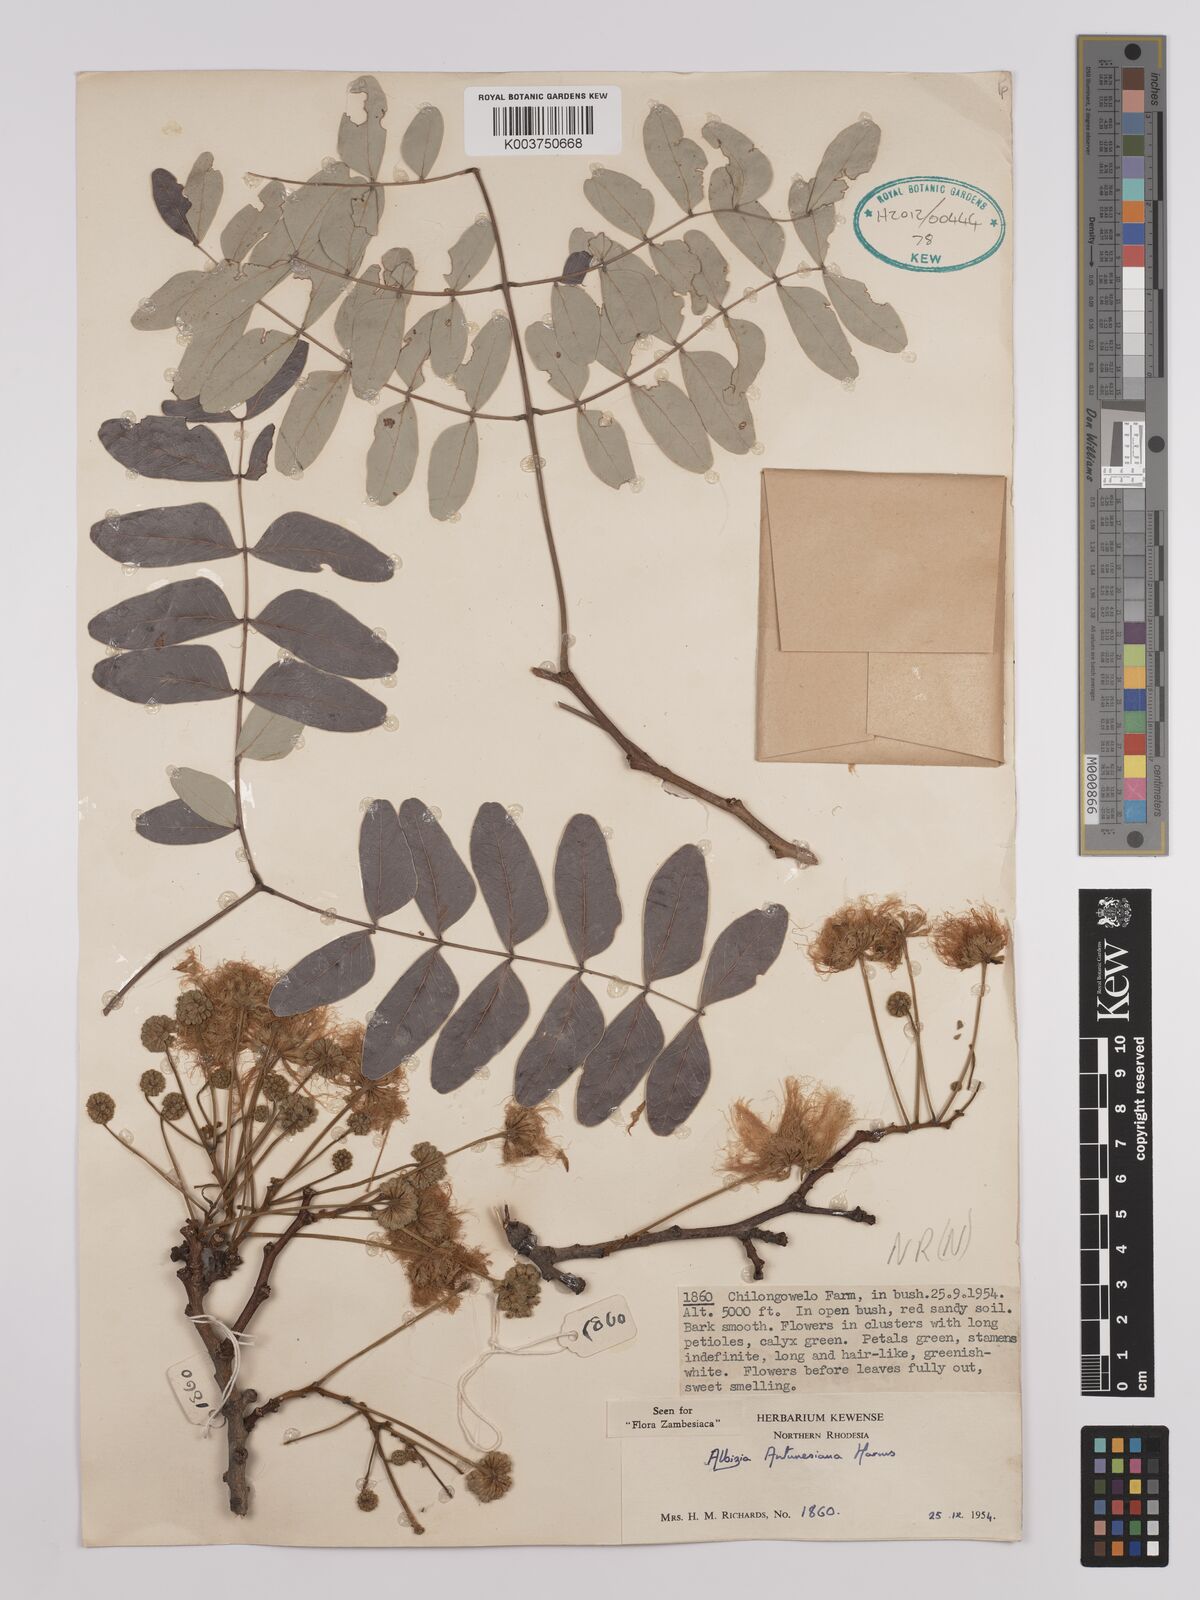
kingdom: Plantae
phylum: Tracheophyta
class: Magnoliopsida
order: Fabales
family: Fabaceae
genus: Albizia
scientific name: Albizia antunesiana
